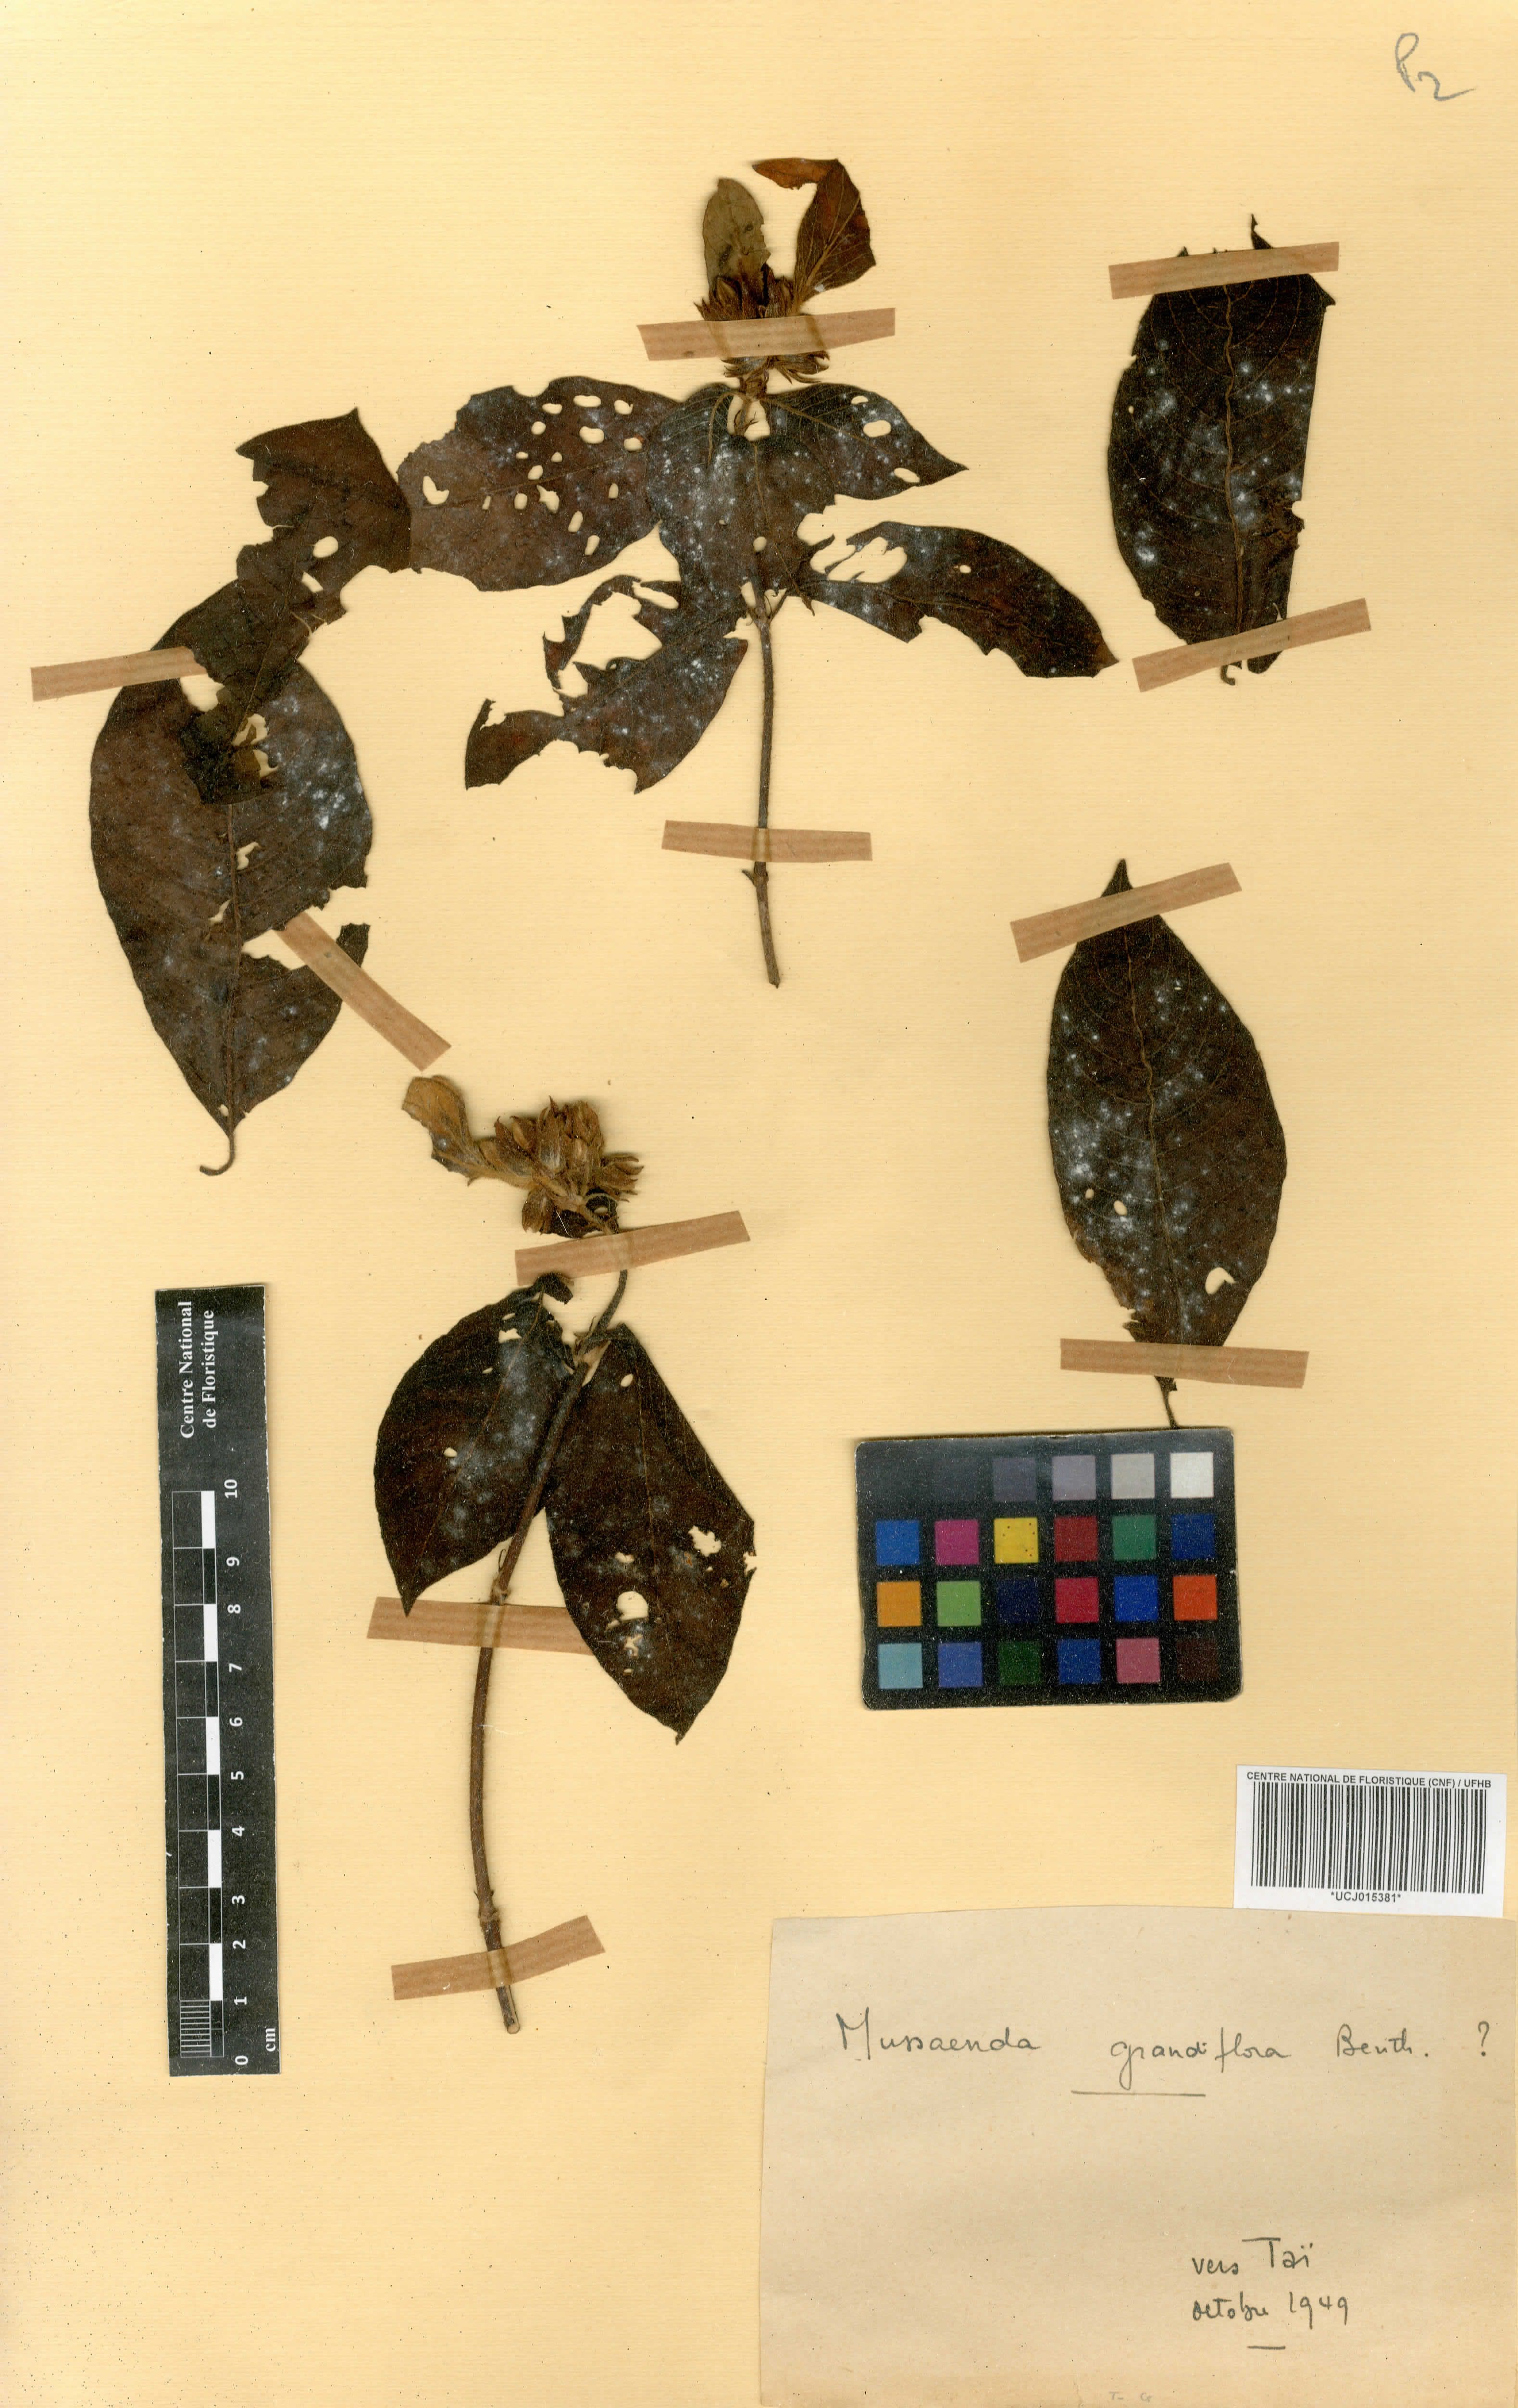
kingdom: Plantae
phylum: Tracheophyta
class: Magnoliopsida
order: Gentianales
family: Rubiaceae
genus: Mussaenda
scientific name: Mussaenda grandiflora
